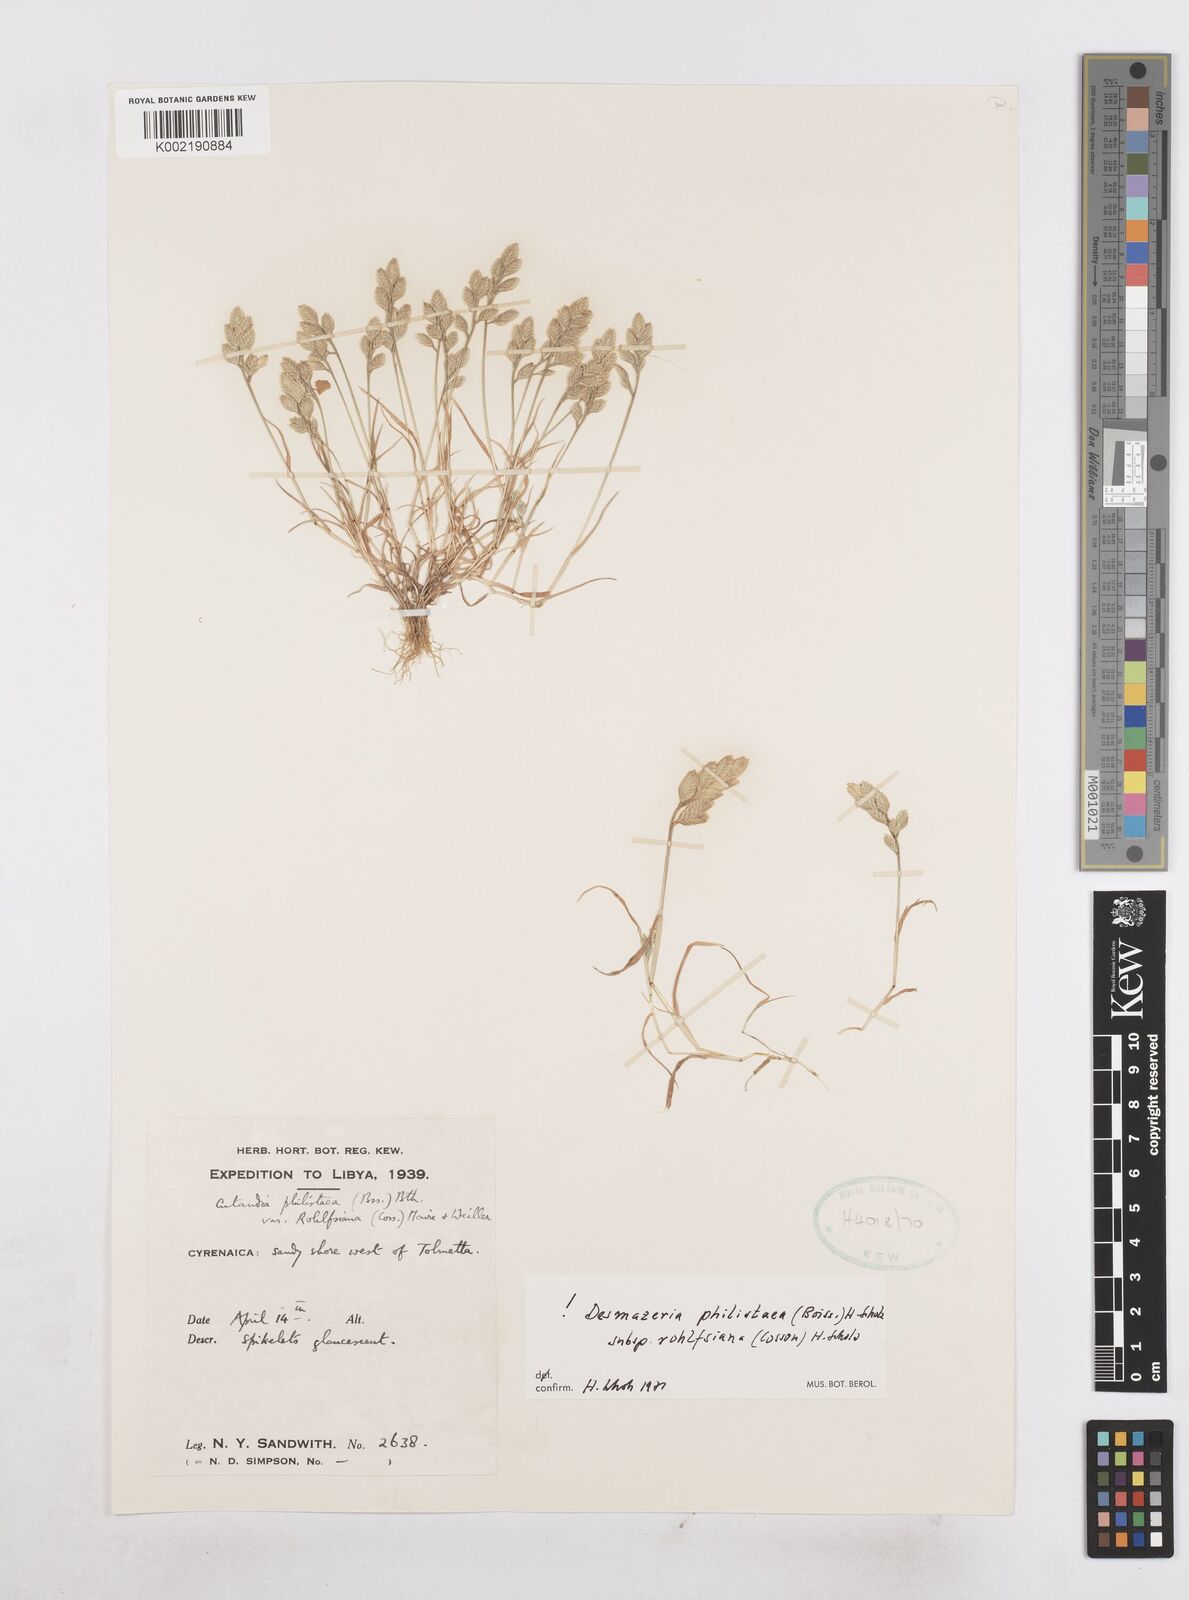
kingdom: Plantae
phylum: Tracheophyta
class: Liliopsida
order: Poales
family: Poaceae
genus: Desmazeria
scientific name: Desmazeria philistaea
